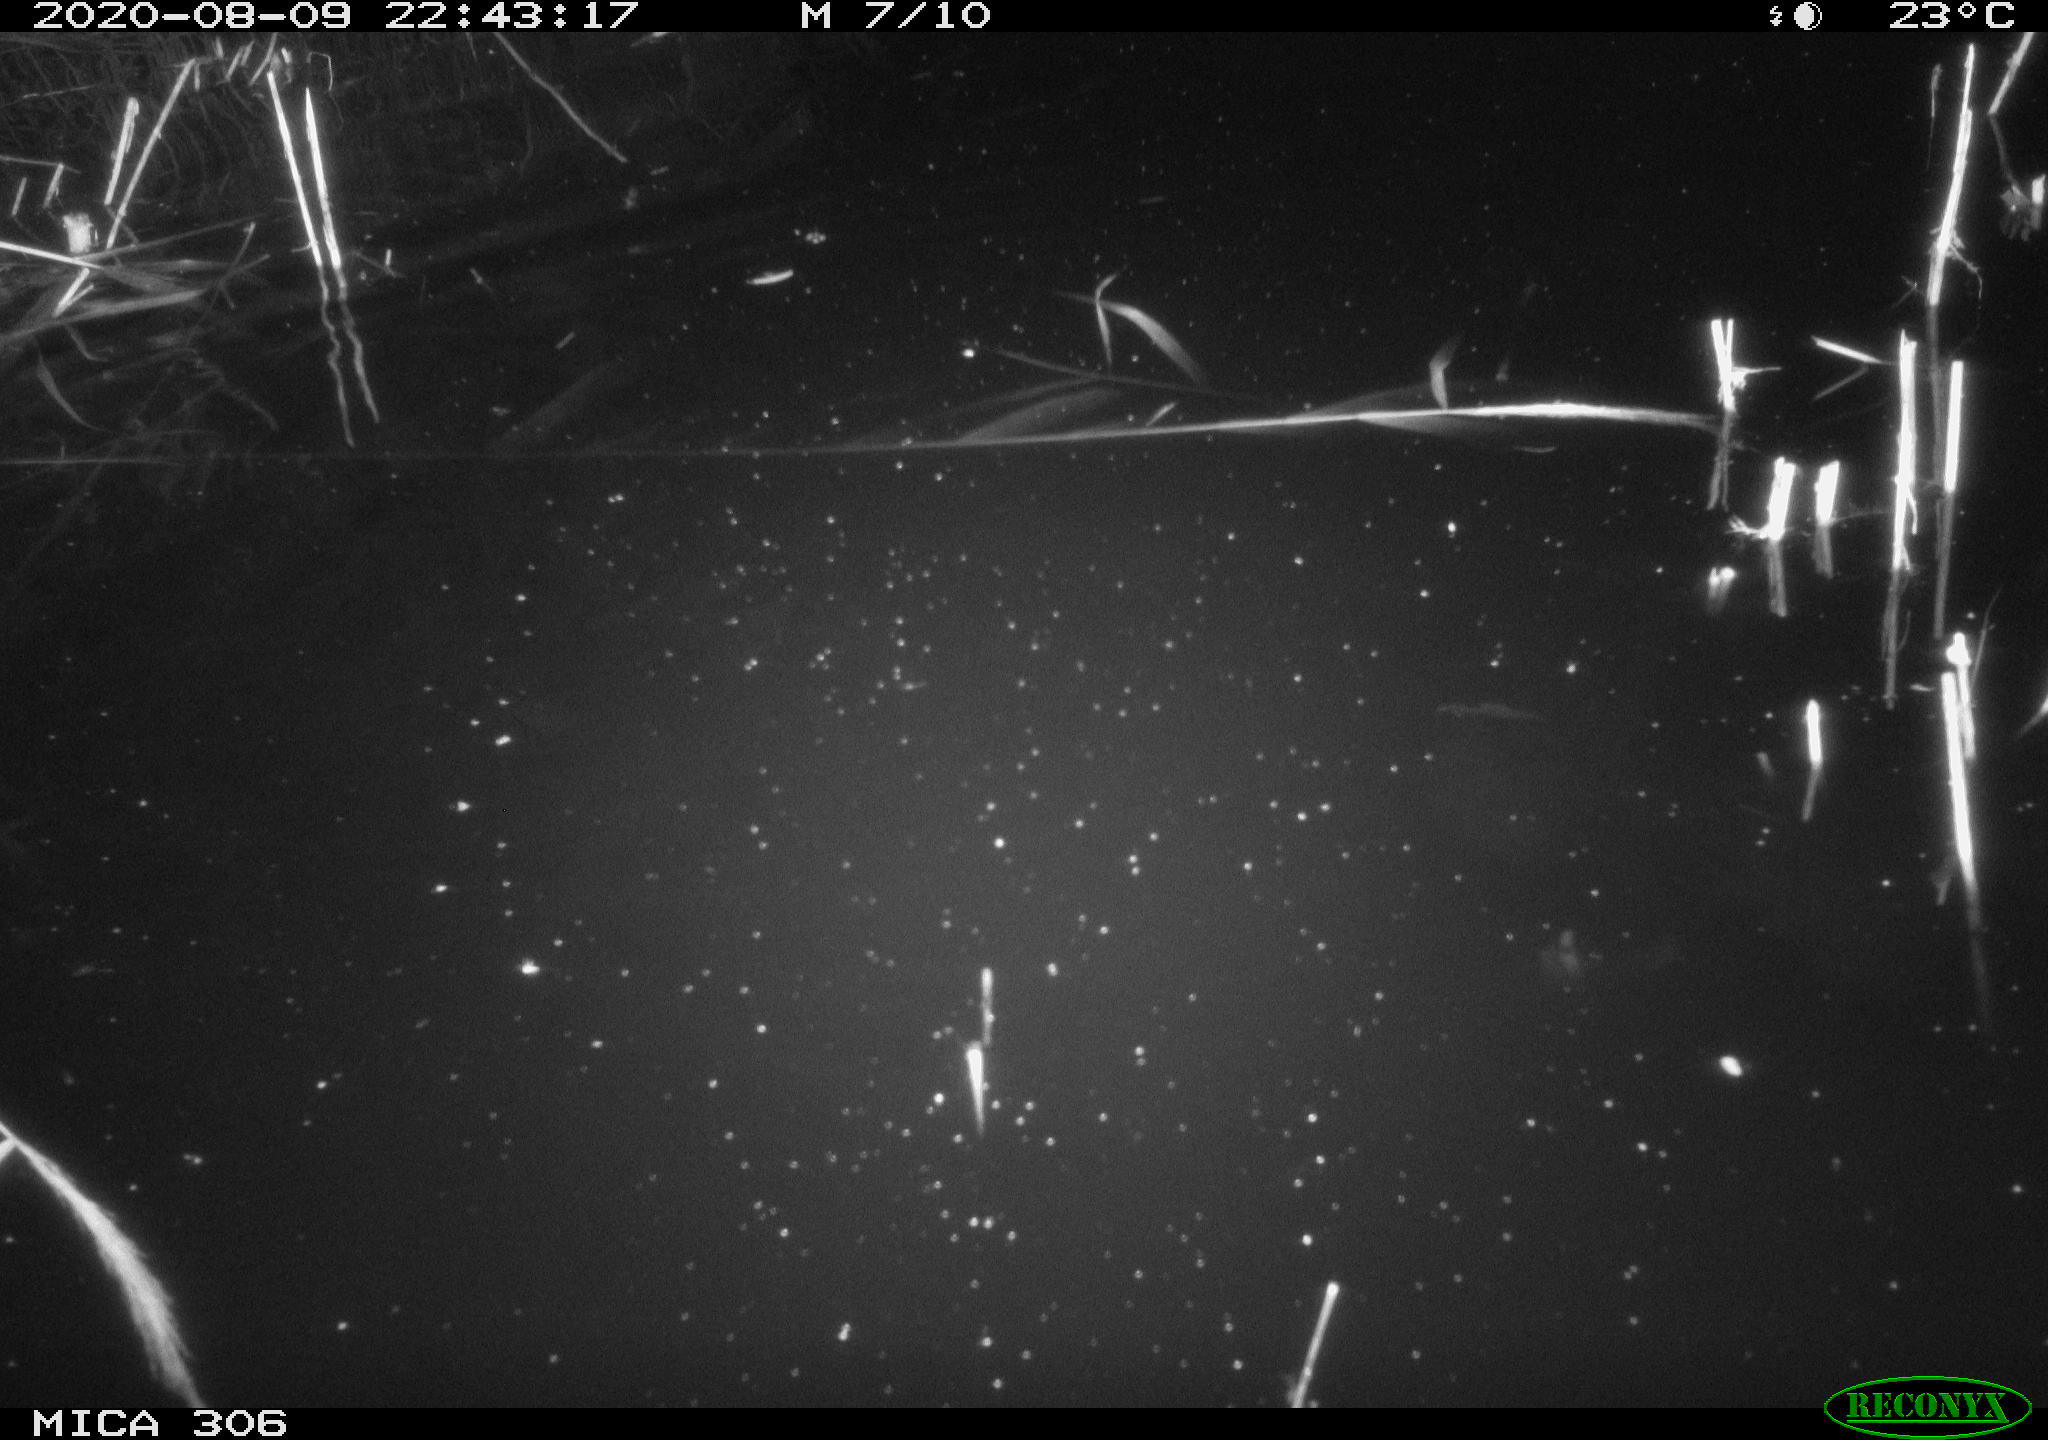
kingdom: Animalia
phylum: Chordata
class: Mammalia
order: Rodentia
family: Muridae
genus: Rattus
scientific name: Rattus norvegicus
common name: Brown rat
